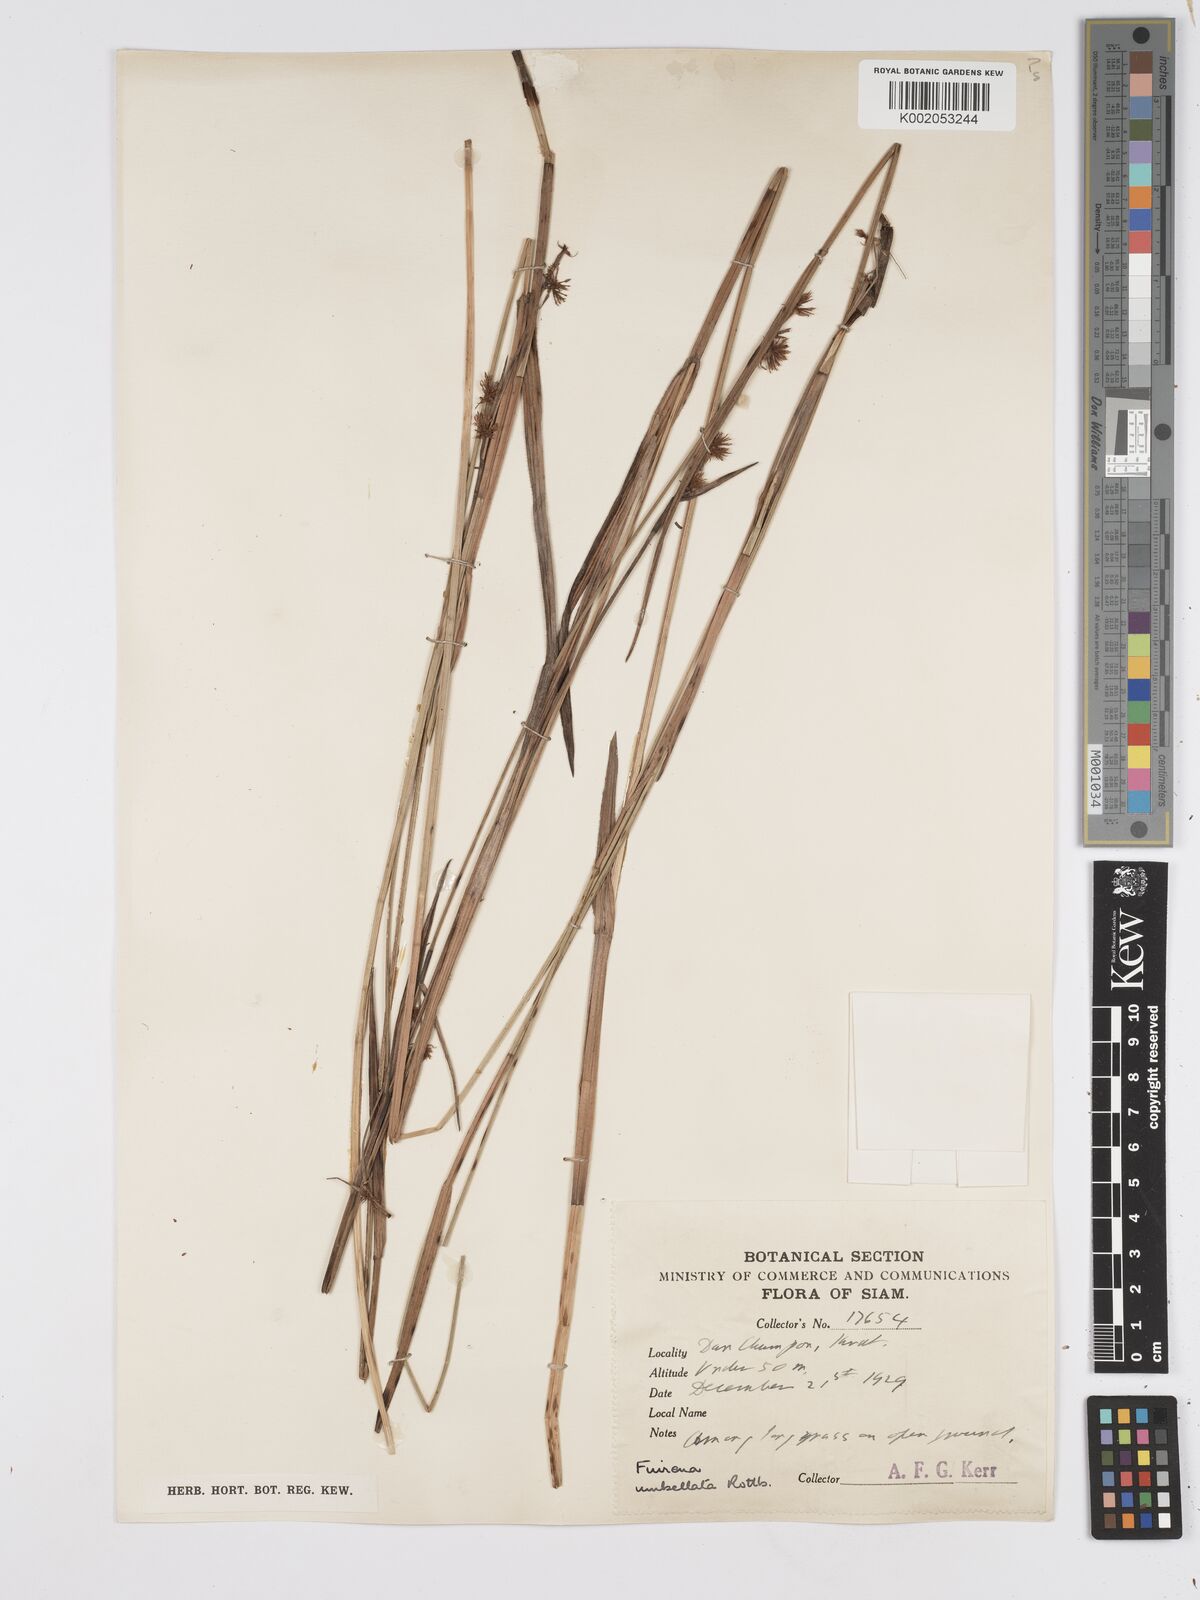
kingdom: Plantae
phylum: Tracheophyta
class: Liliopsida
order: Poales
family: Cyperaceae
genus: Fuirena
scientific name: Fuirena umbellata
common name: Yefen
